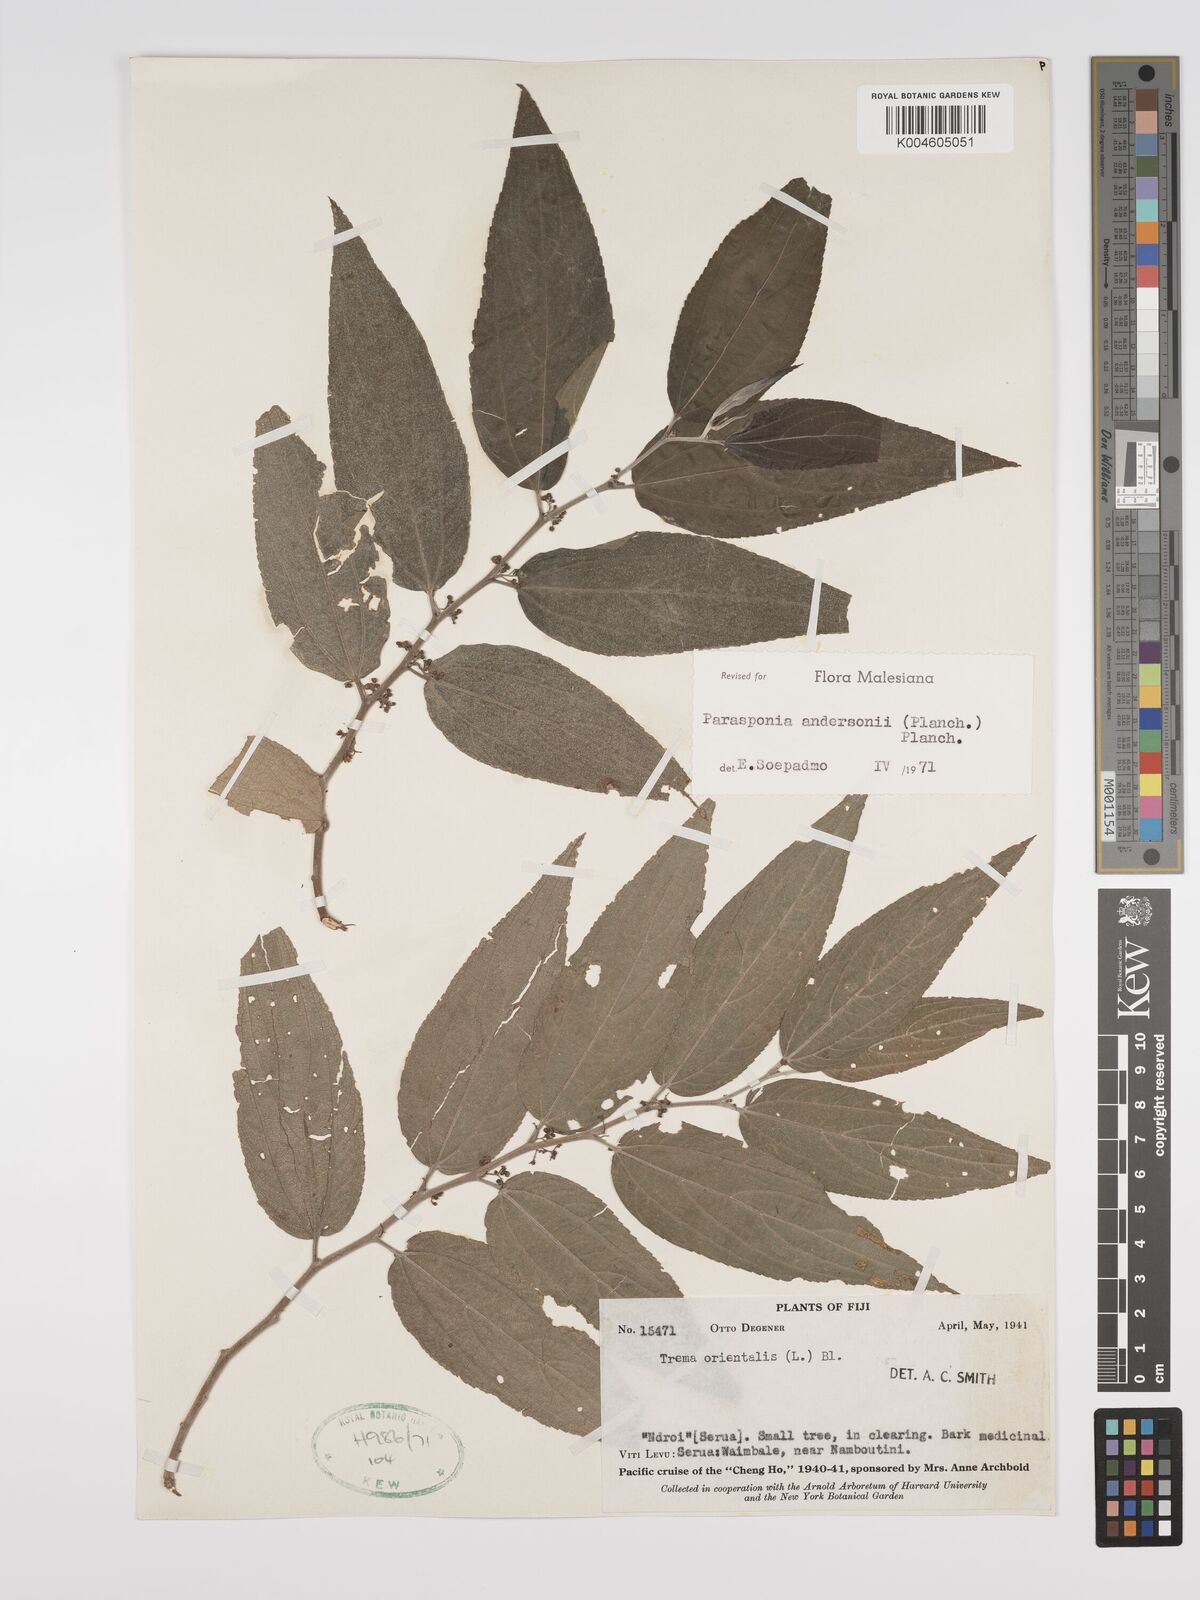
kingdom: Plantae
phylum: Tracheophyta
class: Magnoliopsida
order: Rosales
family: Cannabaceae
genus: Trema
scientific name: Trema andersonii
